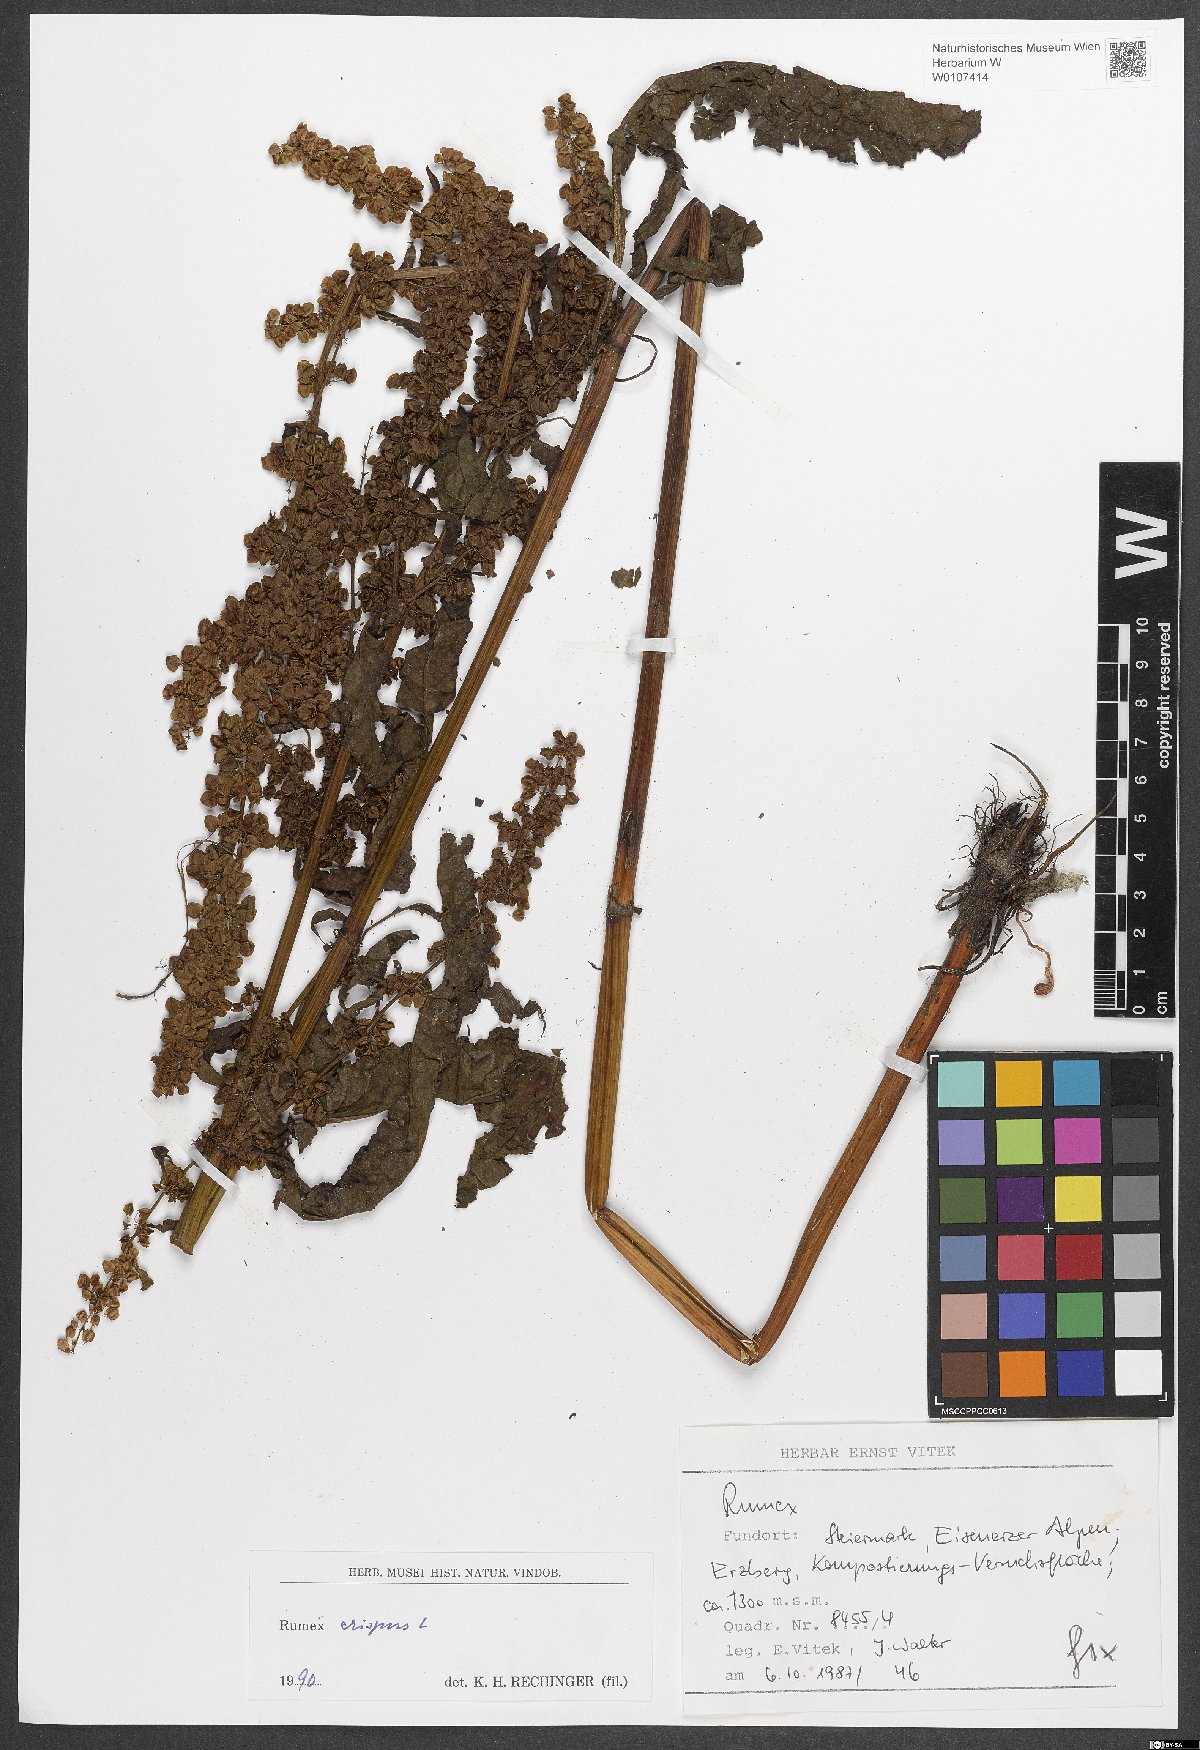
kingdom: Plantae
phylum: Tracheophyta
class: Magnoliopsida
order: Caryophyllales
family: Polygonaceae
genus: Rumex
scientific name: Rumex crispus
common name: Curled dock
